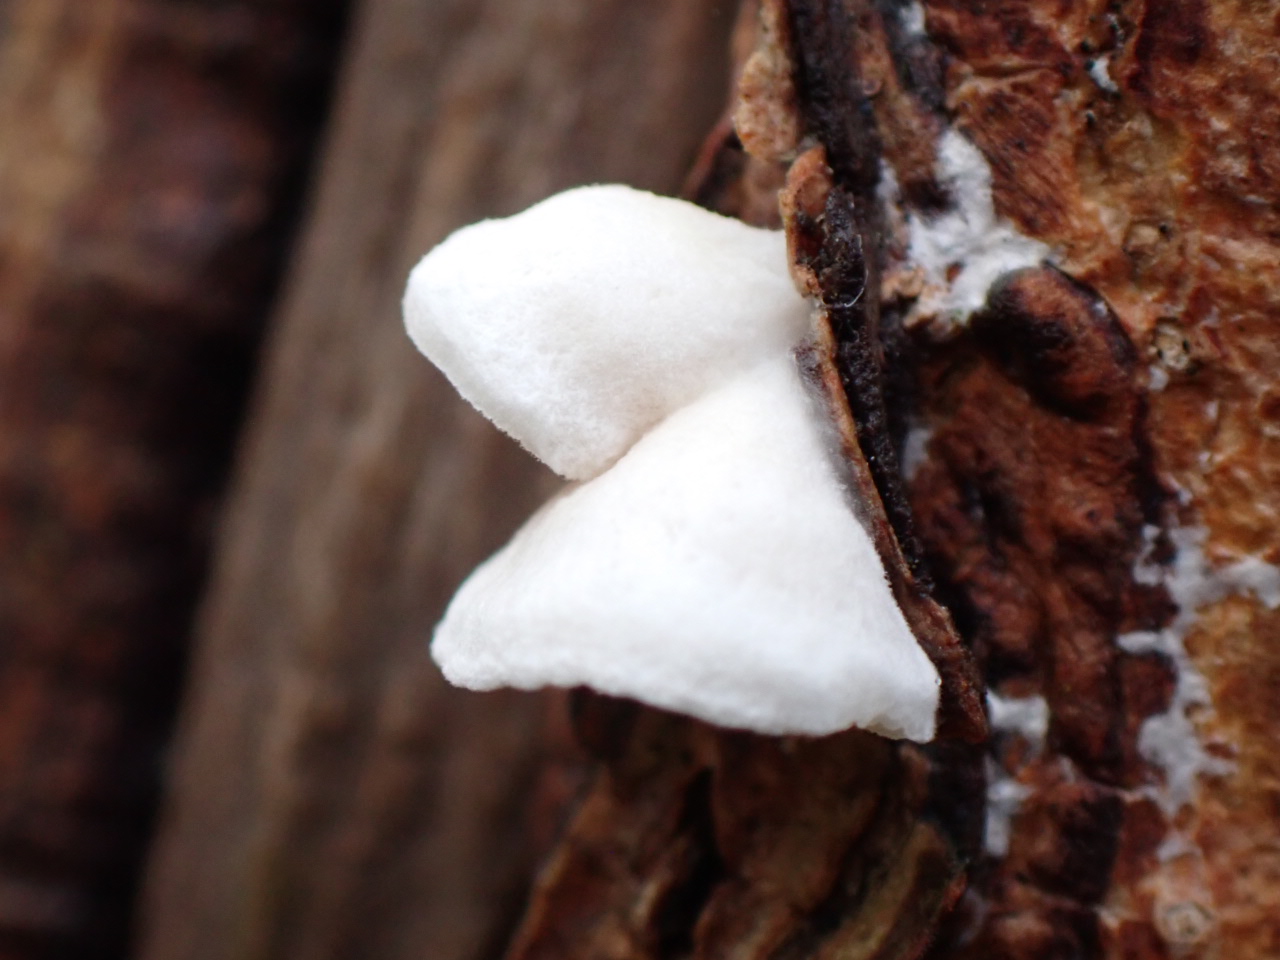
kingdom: Fungi
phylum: Basidiomycota
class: Agaricomycetes
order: Agaricales
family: Crepidotaceae
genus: Crepidotus
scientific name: Crepidotus
